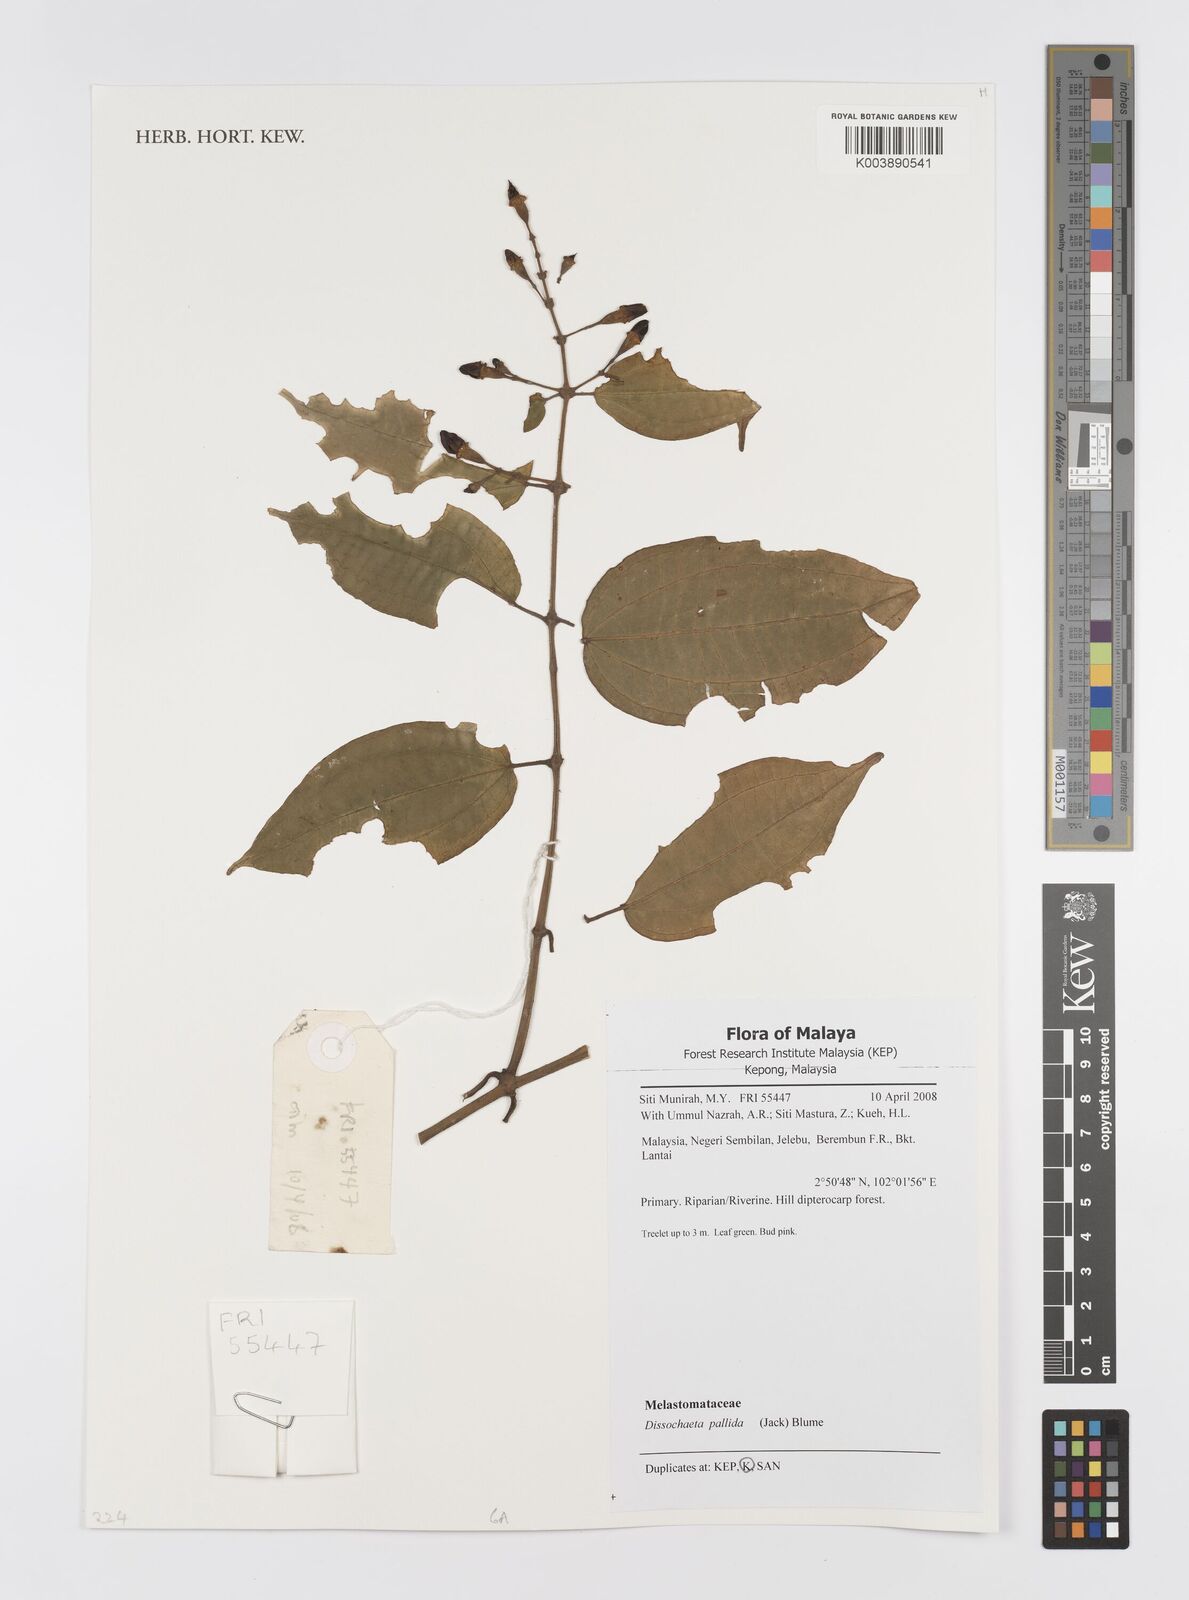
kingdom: Plantae
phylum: Tracheophyta
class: Magnoliopsida
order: Myrtales
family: Melastomataceae
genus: Dissochaeta
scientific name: Dissochaeta pallida
